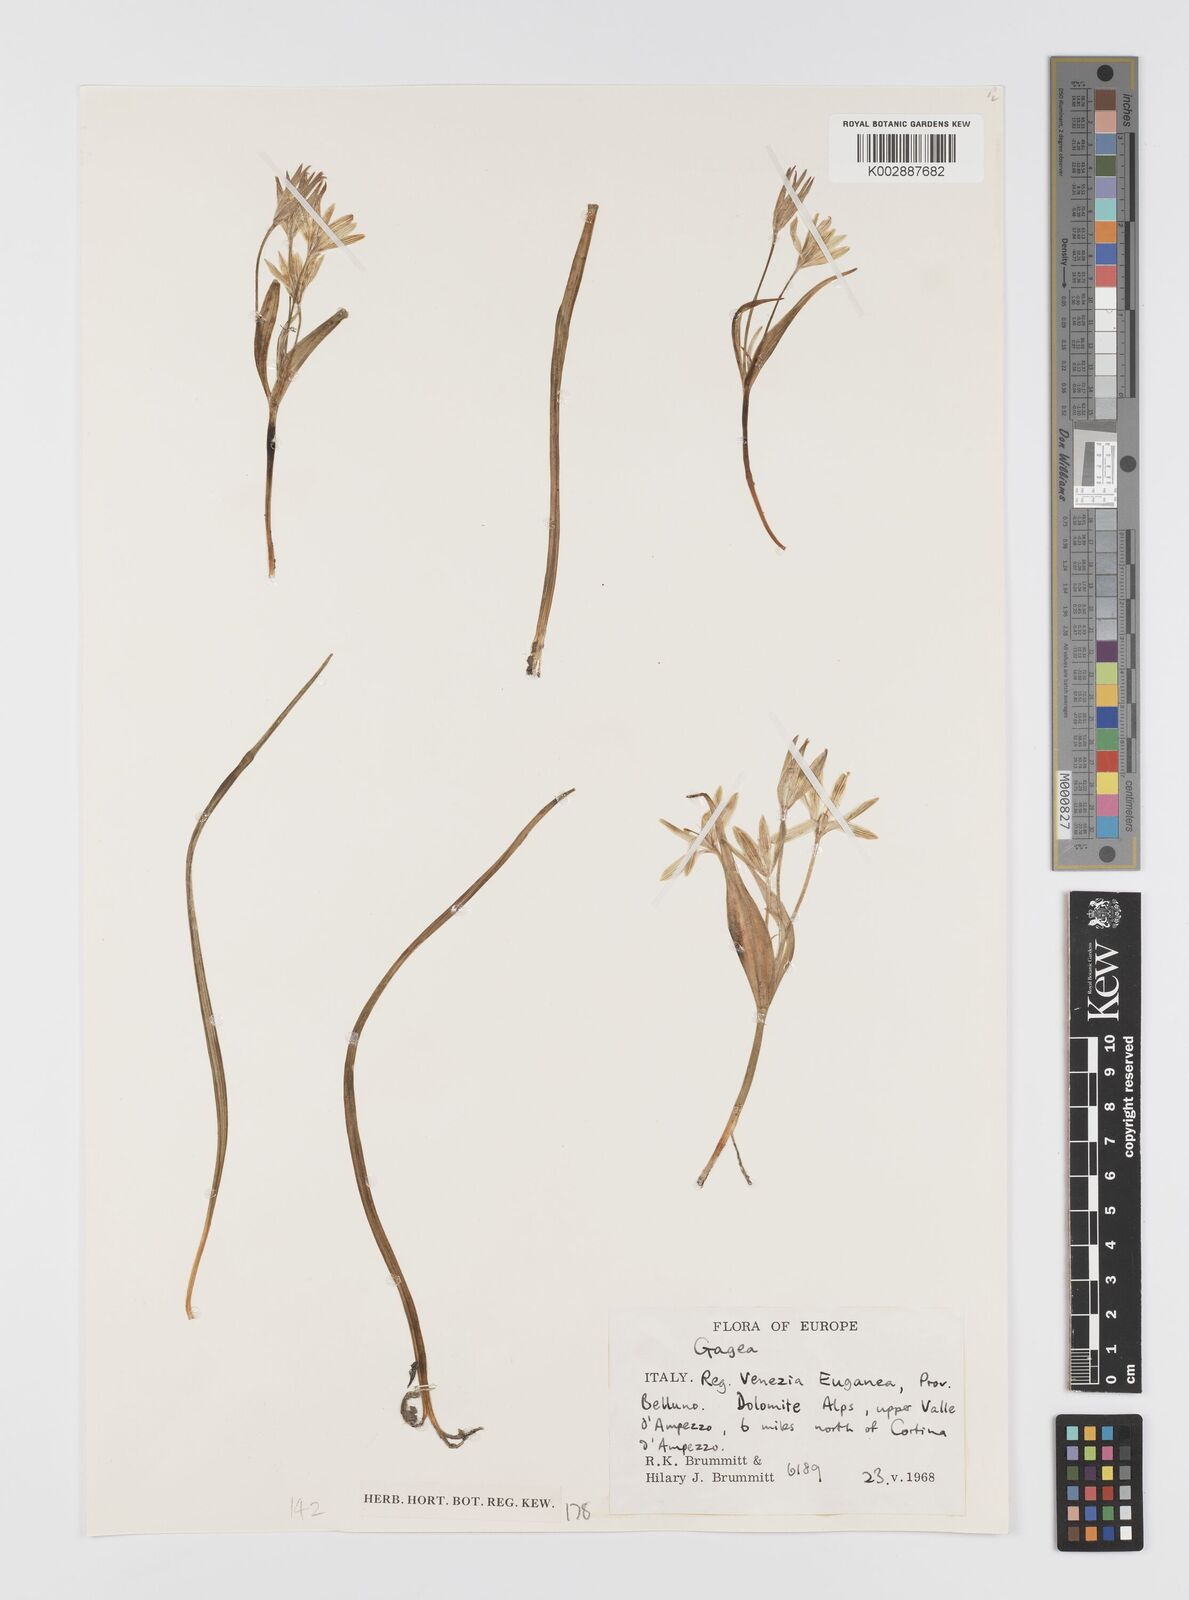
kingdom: Plantae
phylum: Tracheophyta
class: Liliopsida
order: Liliales
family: Liliaceae
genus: Gagea
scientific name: Gagea
